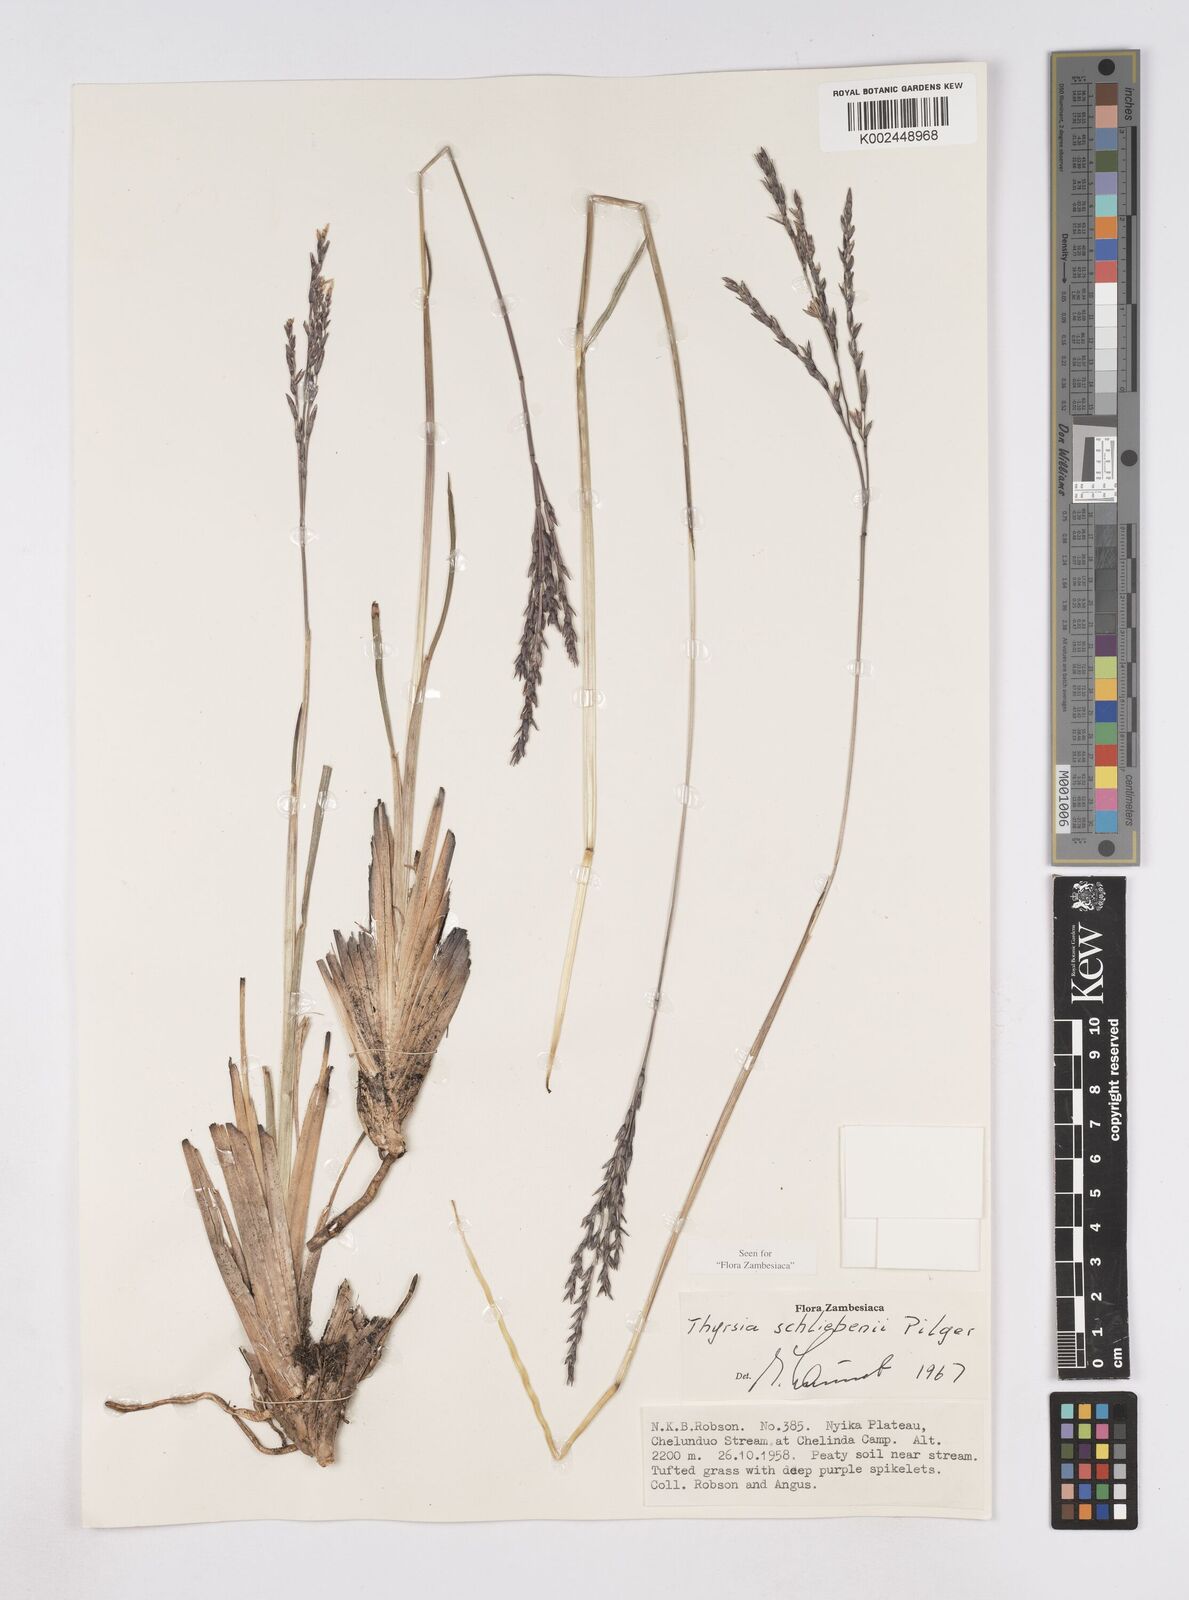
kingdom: Plantae
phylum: Tracheophyta
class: Liliopsida
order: Poales
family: Poaceae
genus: Thyrsia
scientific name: Thyrsia schliebenii
